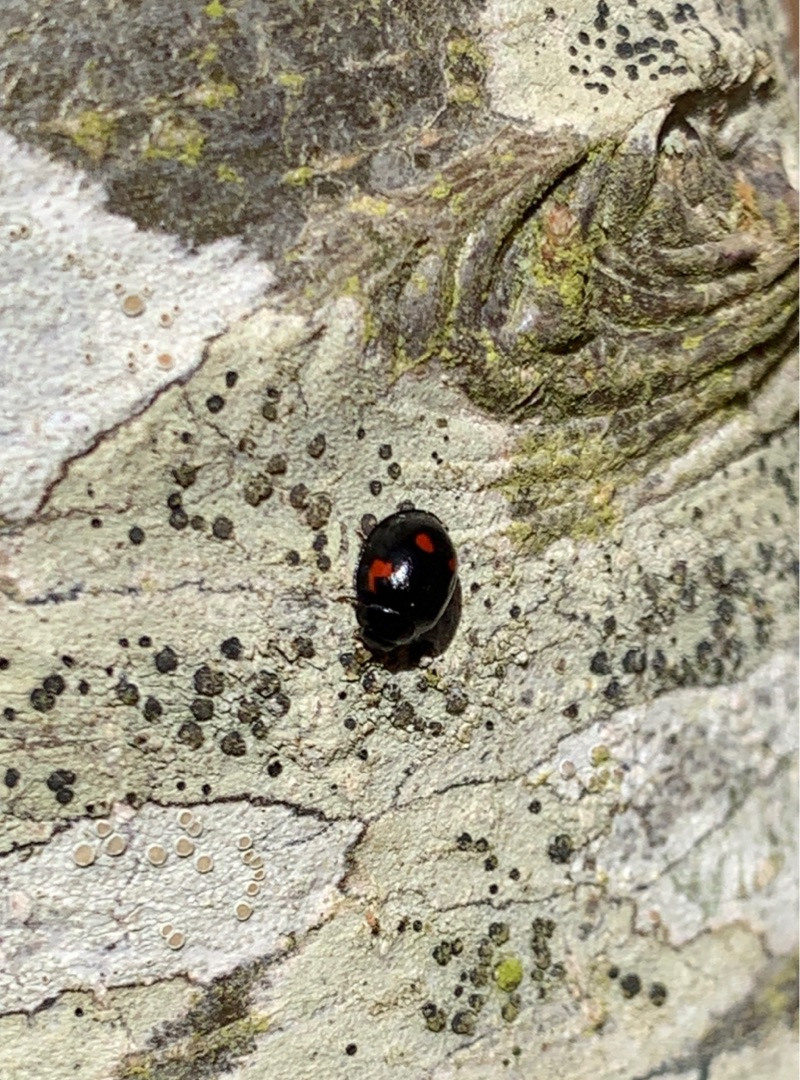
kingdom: Animalia
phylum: Arthropoda
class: Insecta
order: Coleoptera
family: Coccinellidae
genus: Brumus
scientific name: Brumus quadripustulatus
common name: Fireplettet mariehøne
